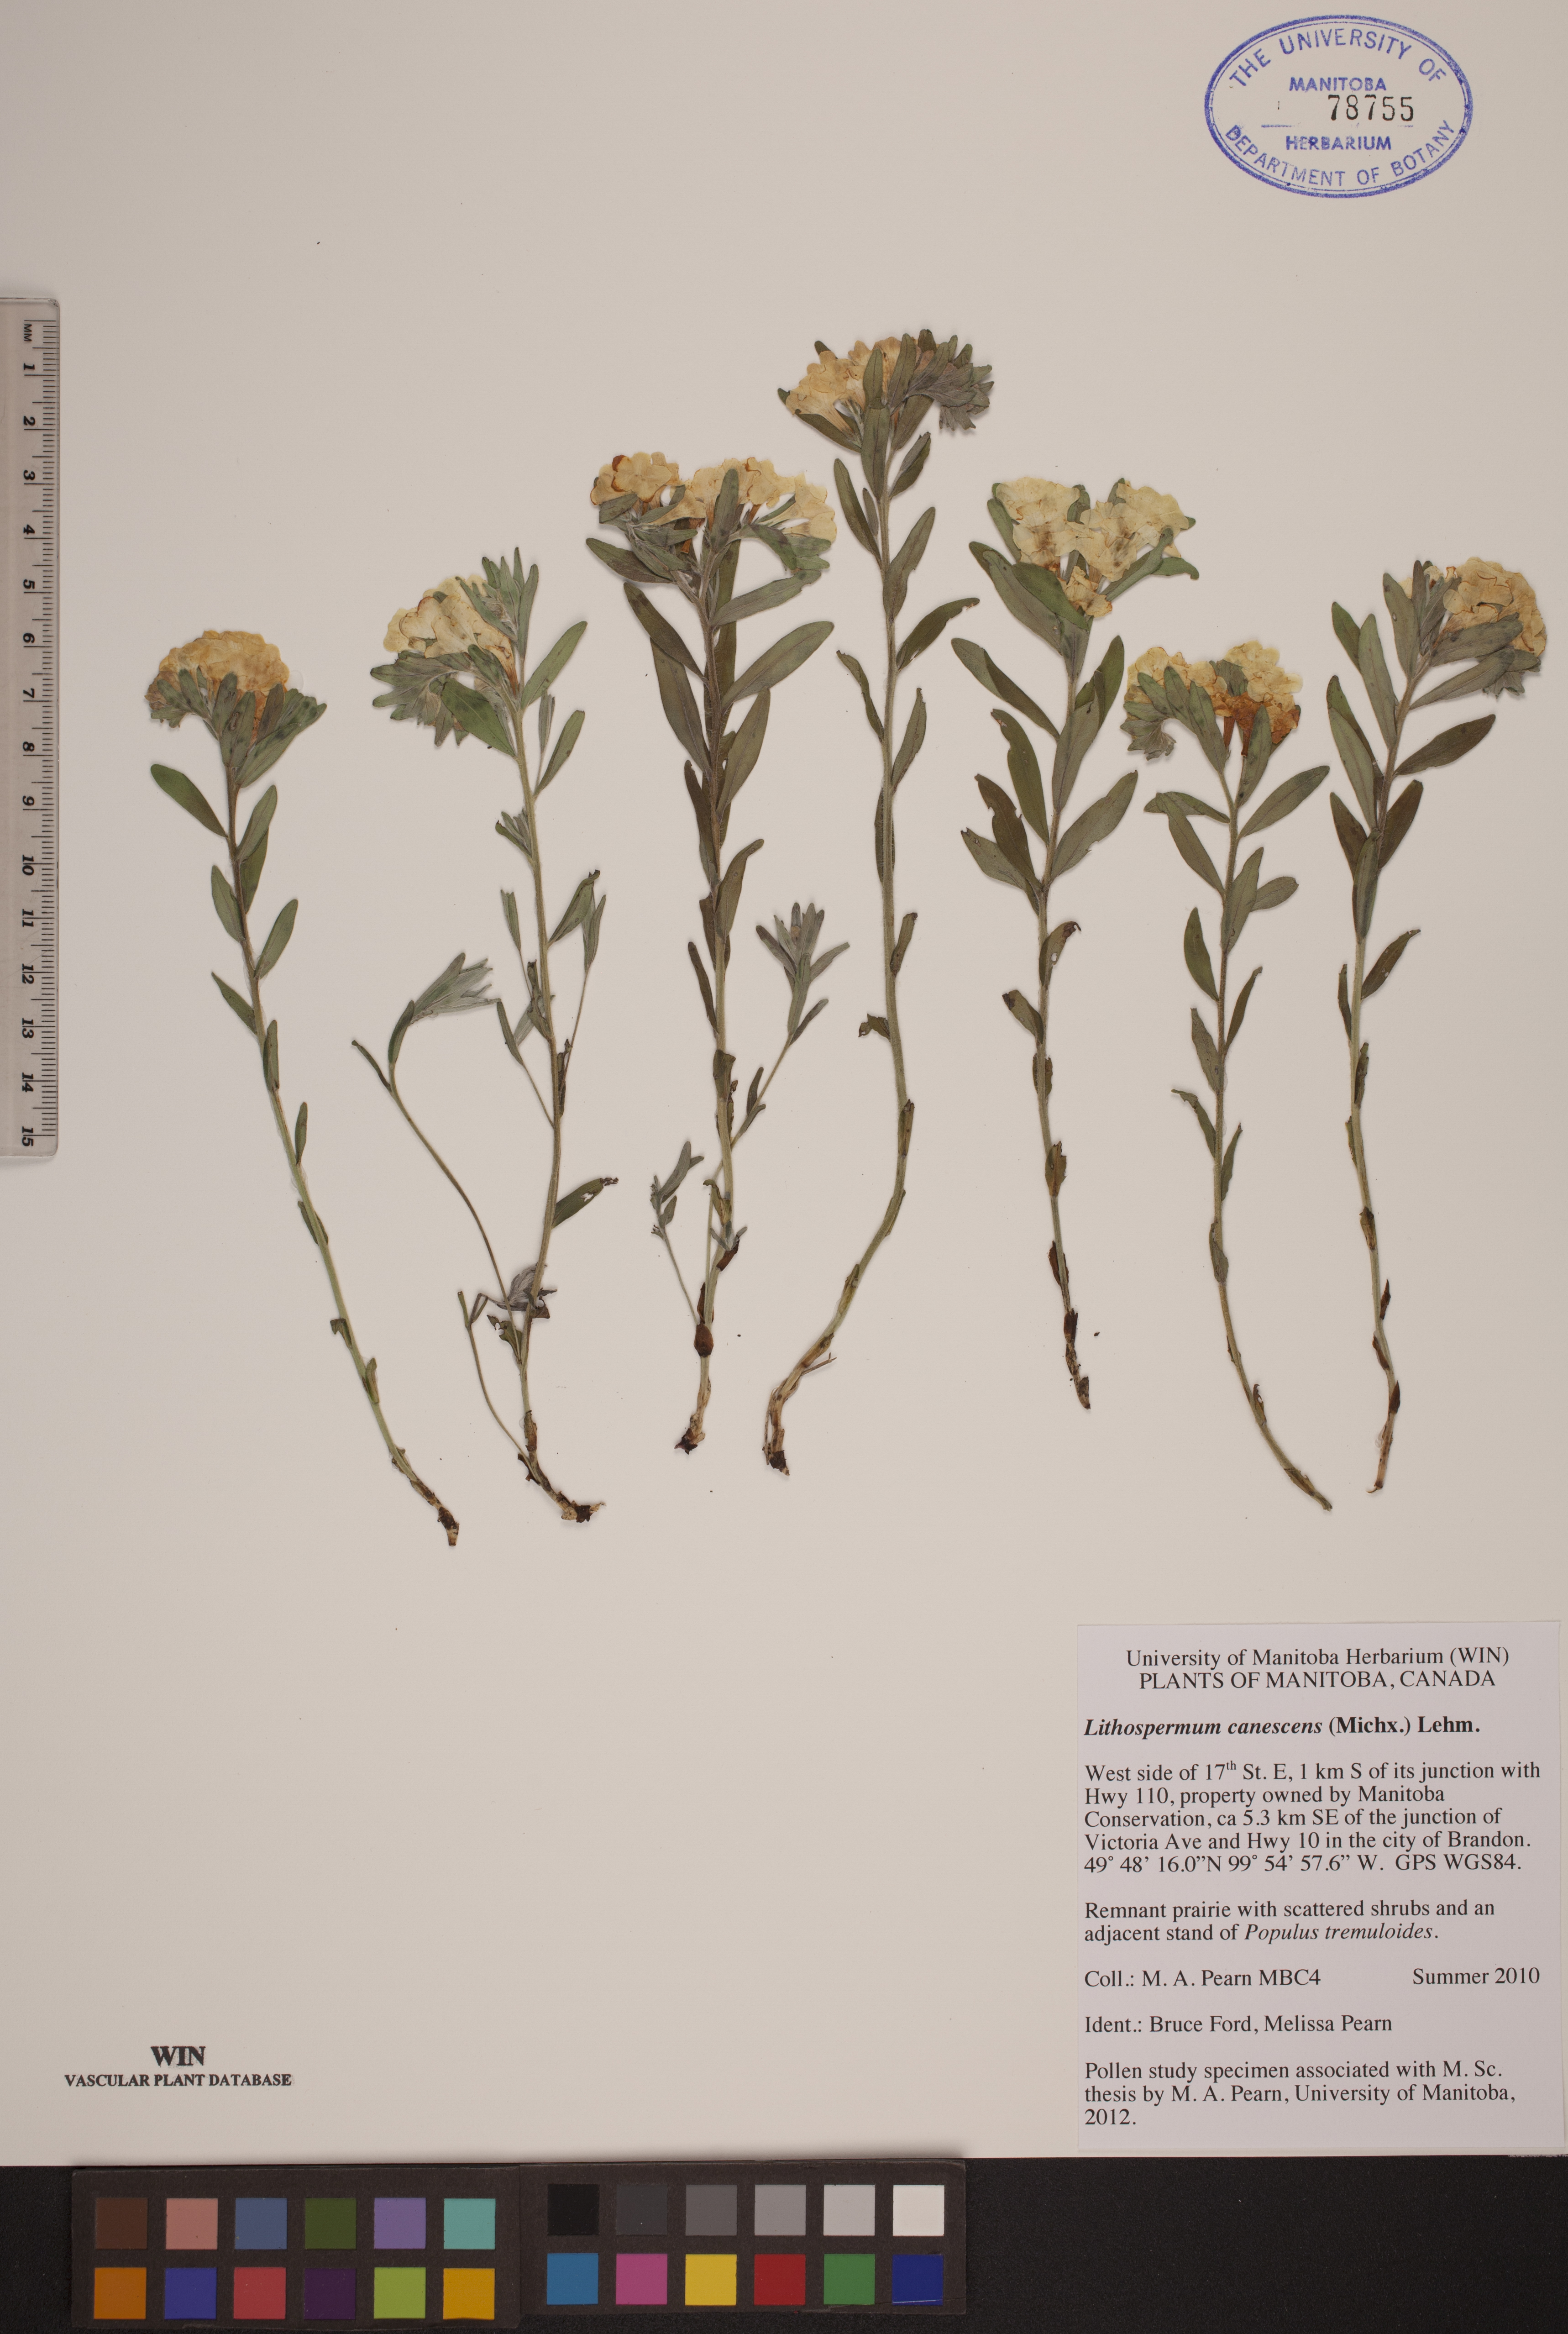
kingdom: Plantae
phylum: Tracheophyta
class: Magnoliopsida
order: Boraginales
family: Boraginaceae
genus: Lithospermum
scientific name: Lithospermum canescens
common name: Hoary puccoon
